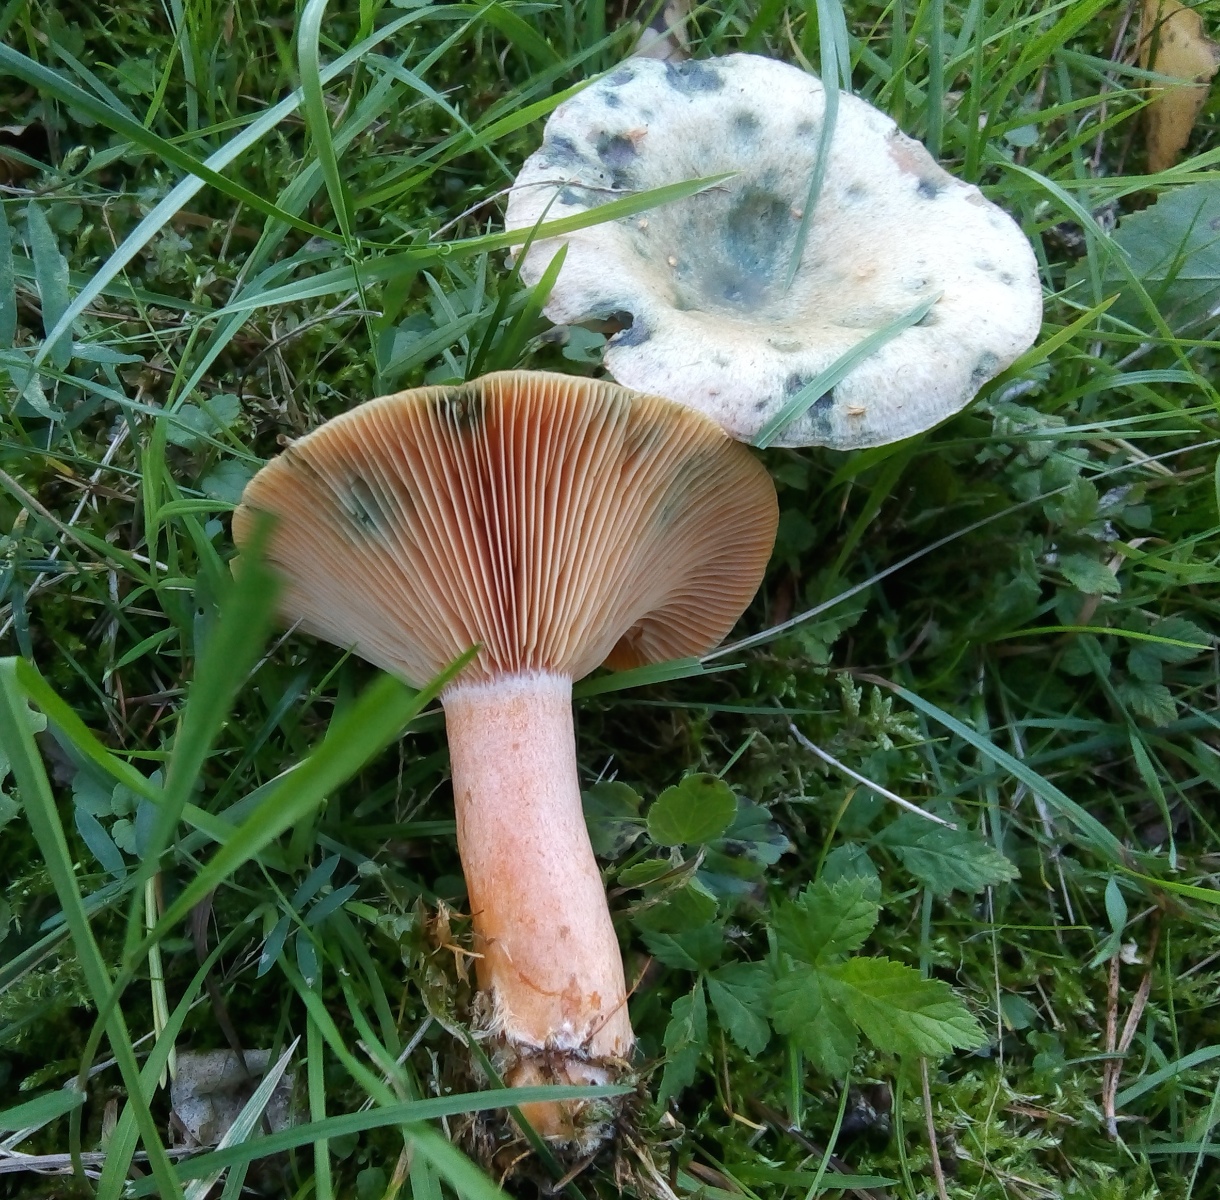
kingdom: Fungi
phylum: Basidiomycota
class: Agaricomycetes
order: Russulales
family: Russulaceae
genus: Lactarius
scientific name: Lactarius deterrimus
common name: gran-mælkehat
